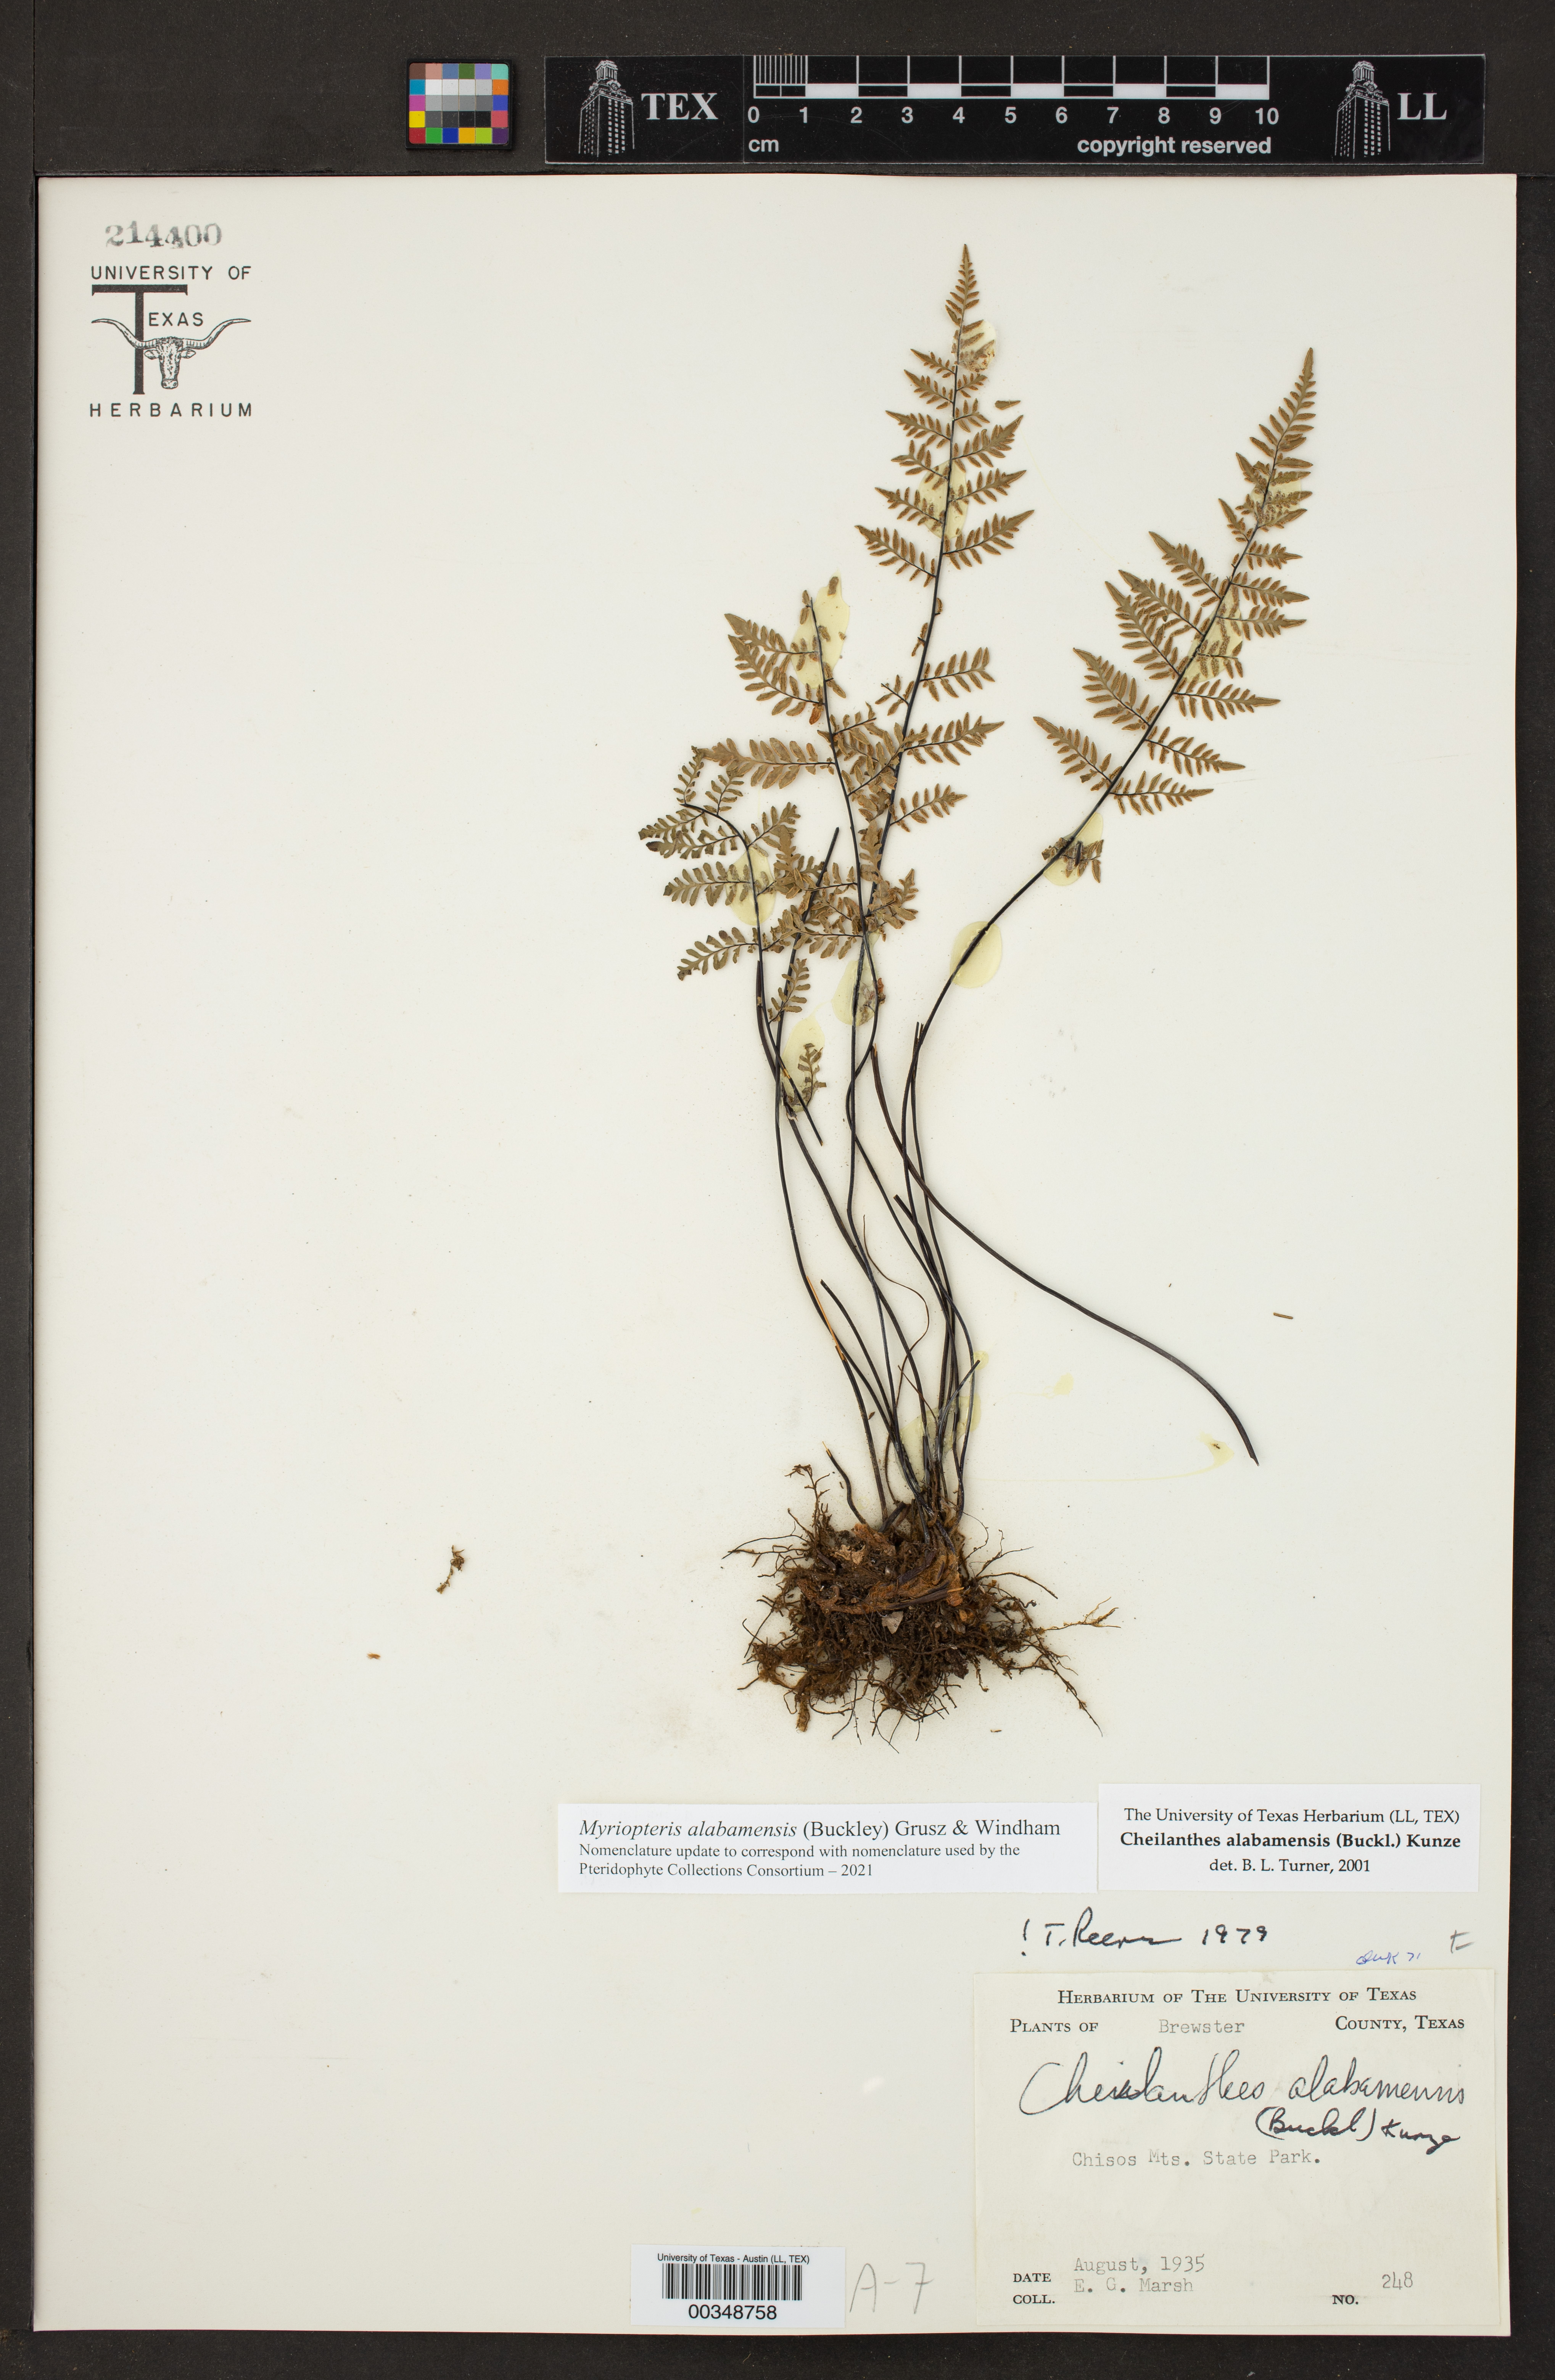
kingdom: Plantae
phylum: Tracheophyta
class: Polypodiopsida
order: Polypodiales
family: Pteridaceae
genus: Myriopteris
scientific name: Myriopteris alabamensis
